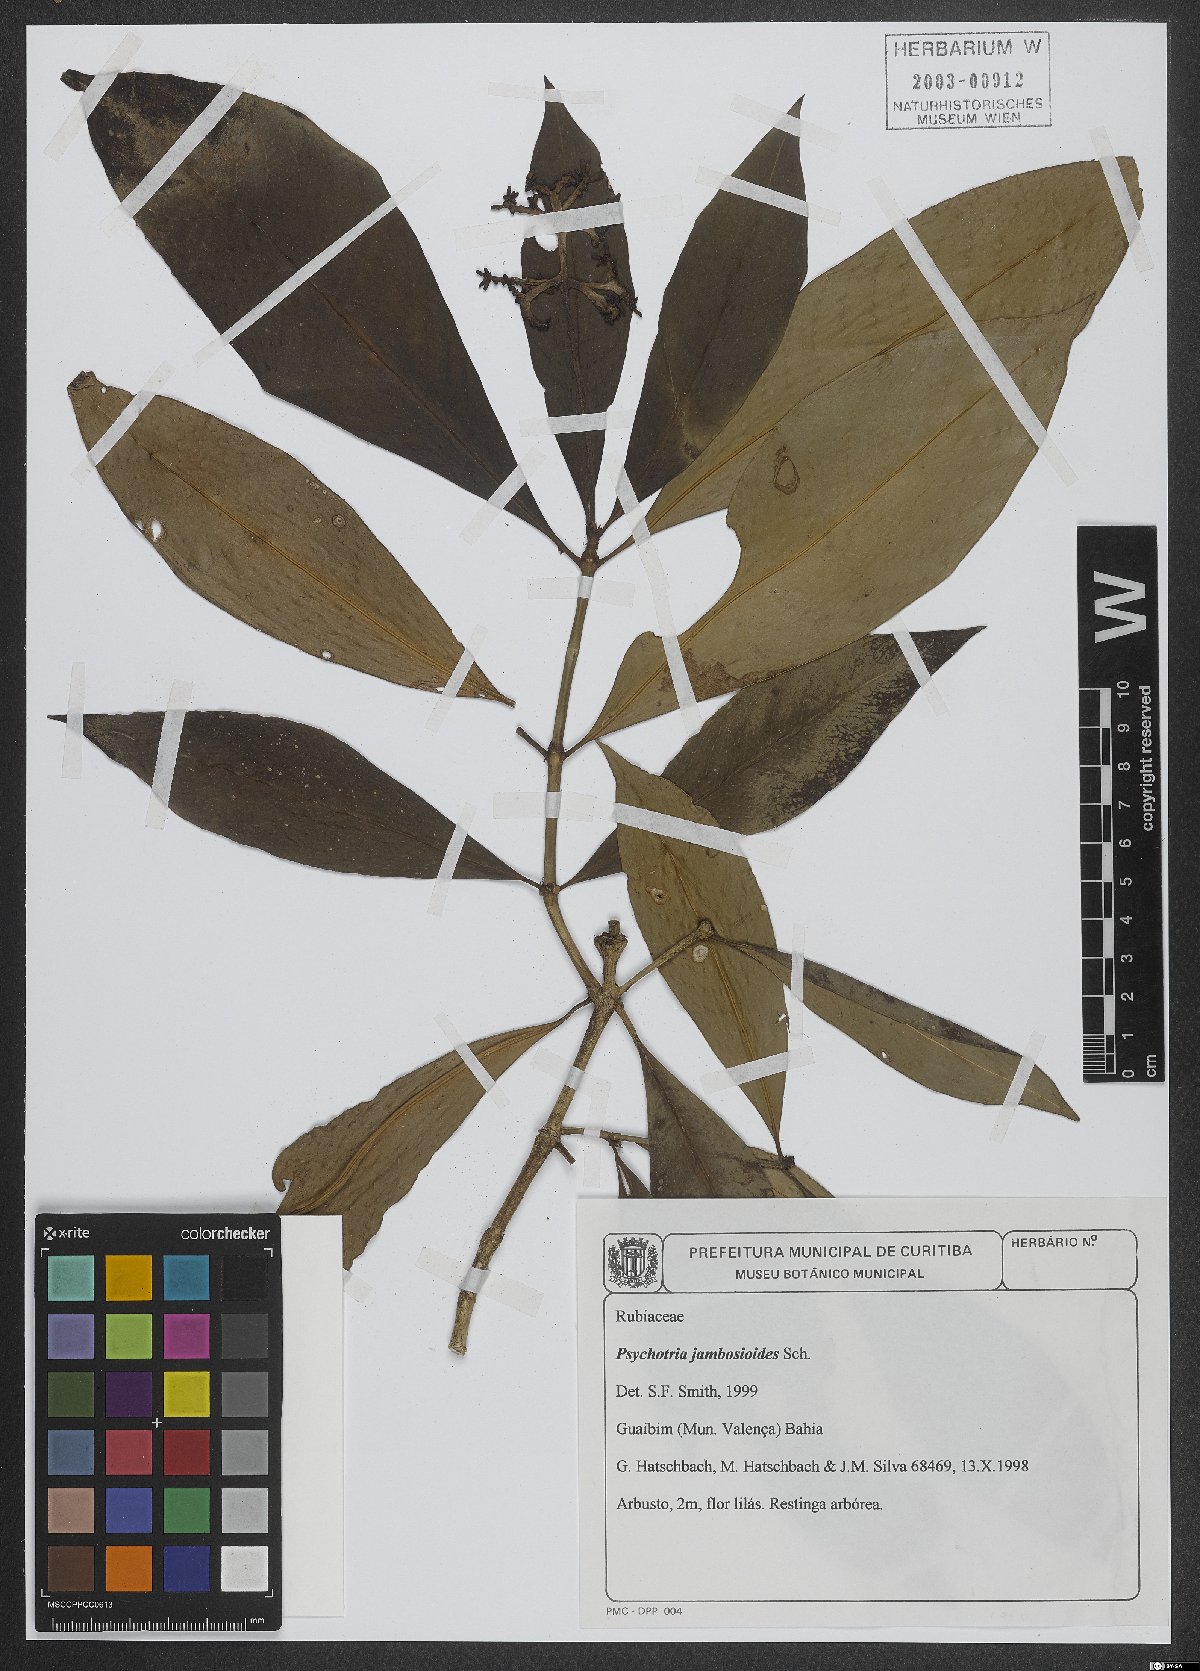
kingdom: Plantae
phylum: Tracheophyta
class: Magnoliopsida
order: Gentianales
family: Rubiaceae
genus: Palicourea
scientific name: Palicourea jambosioides
